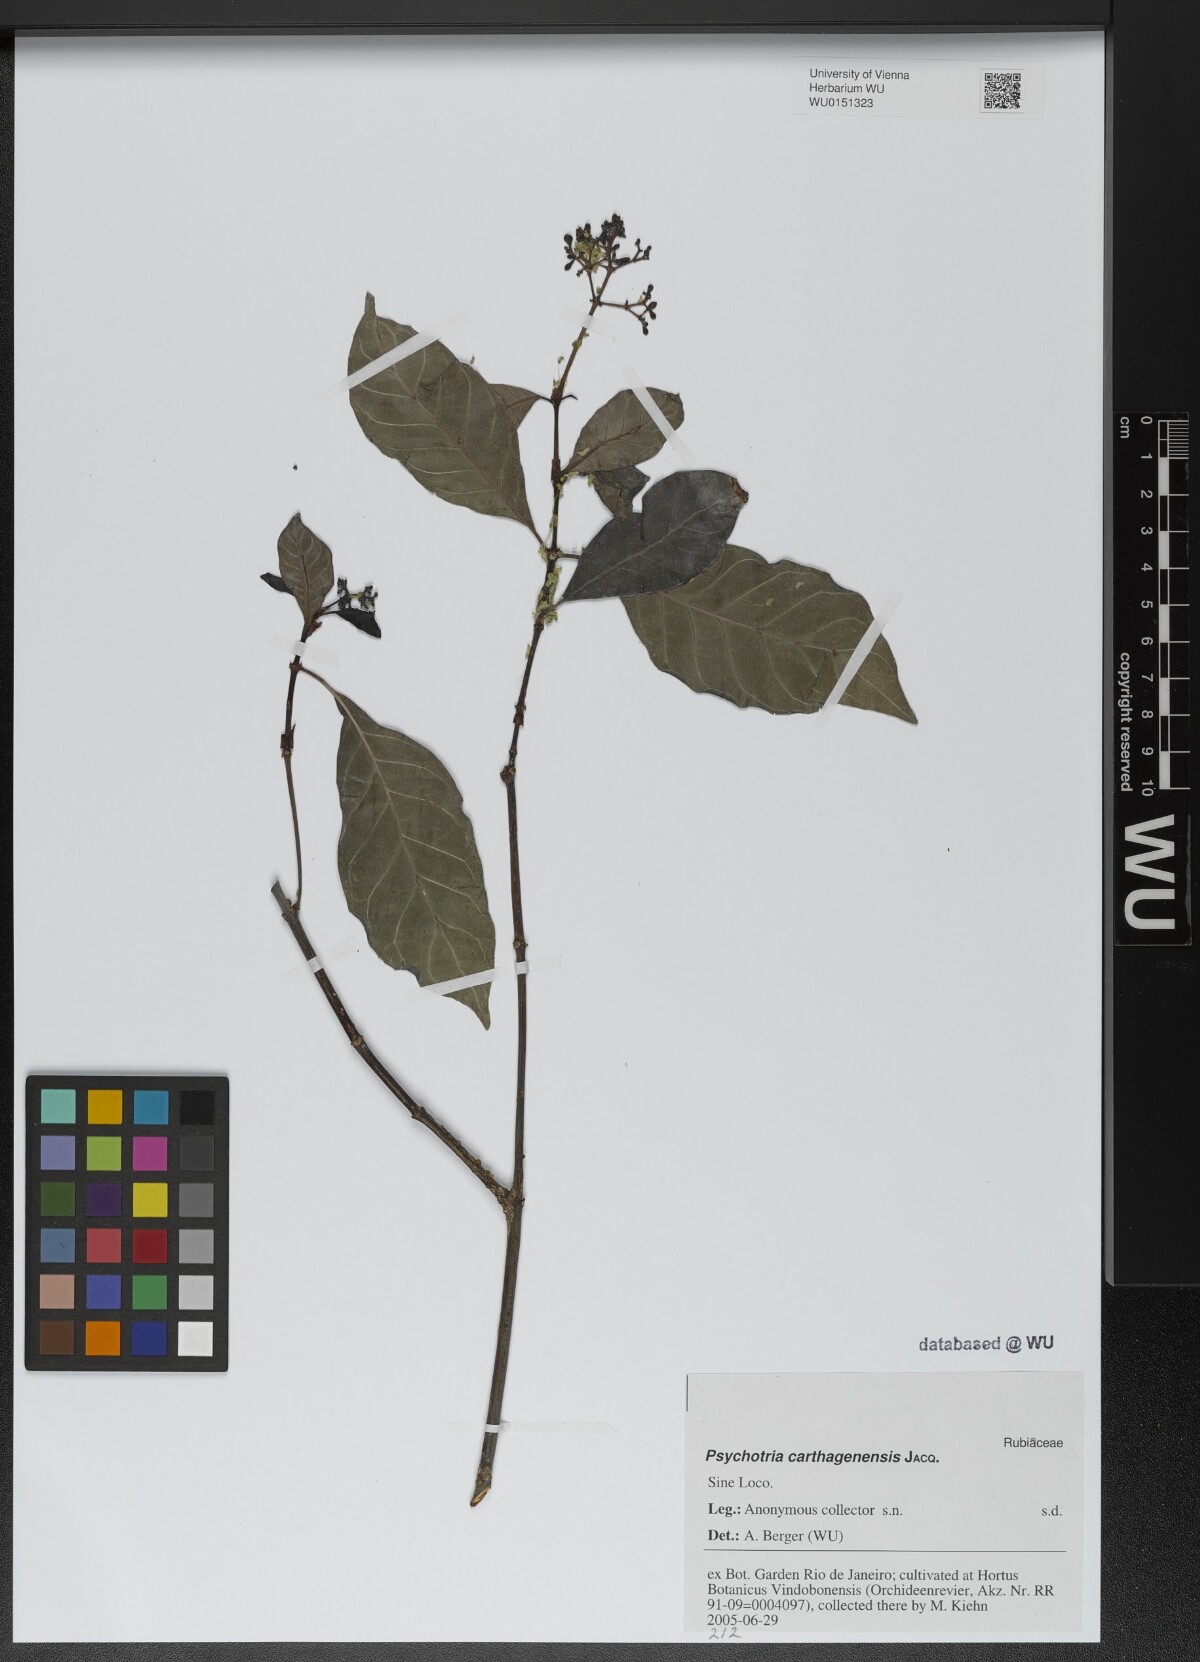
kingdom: Plantae
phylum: Tracheophyta
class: Magnoliopsida
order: Gentianales
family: Rubiaceae
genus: Psychotria
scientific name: Psychotria carthagenensis
